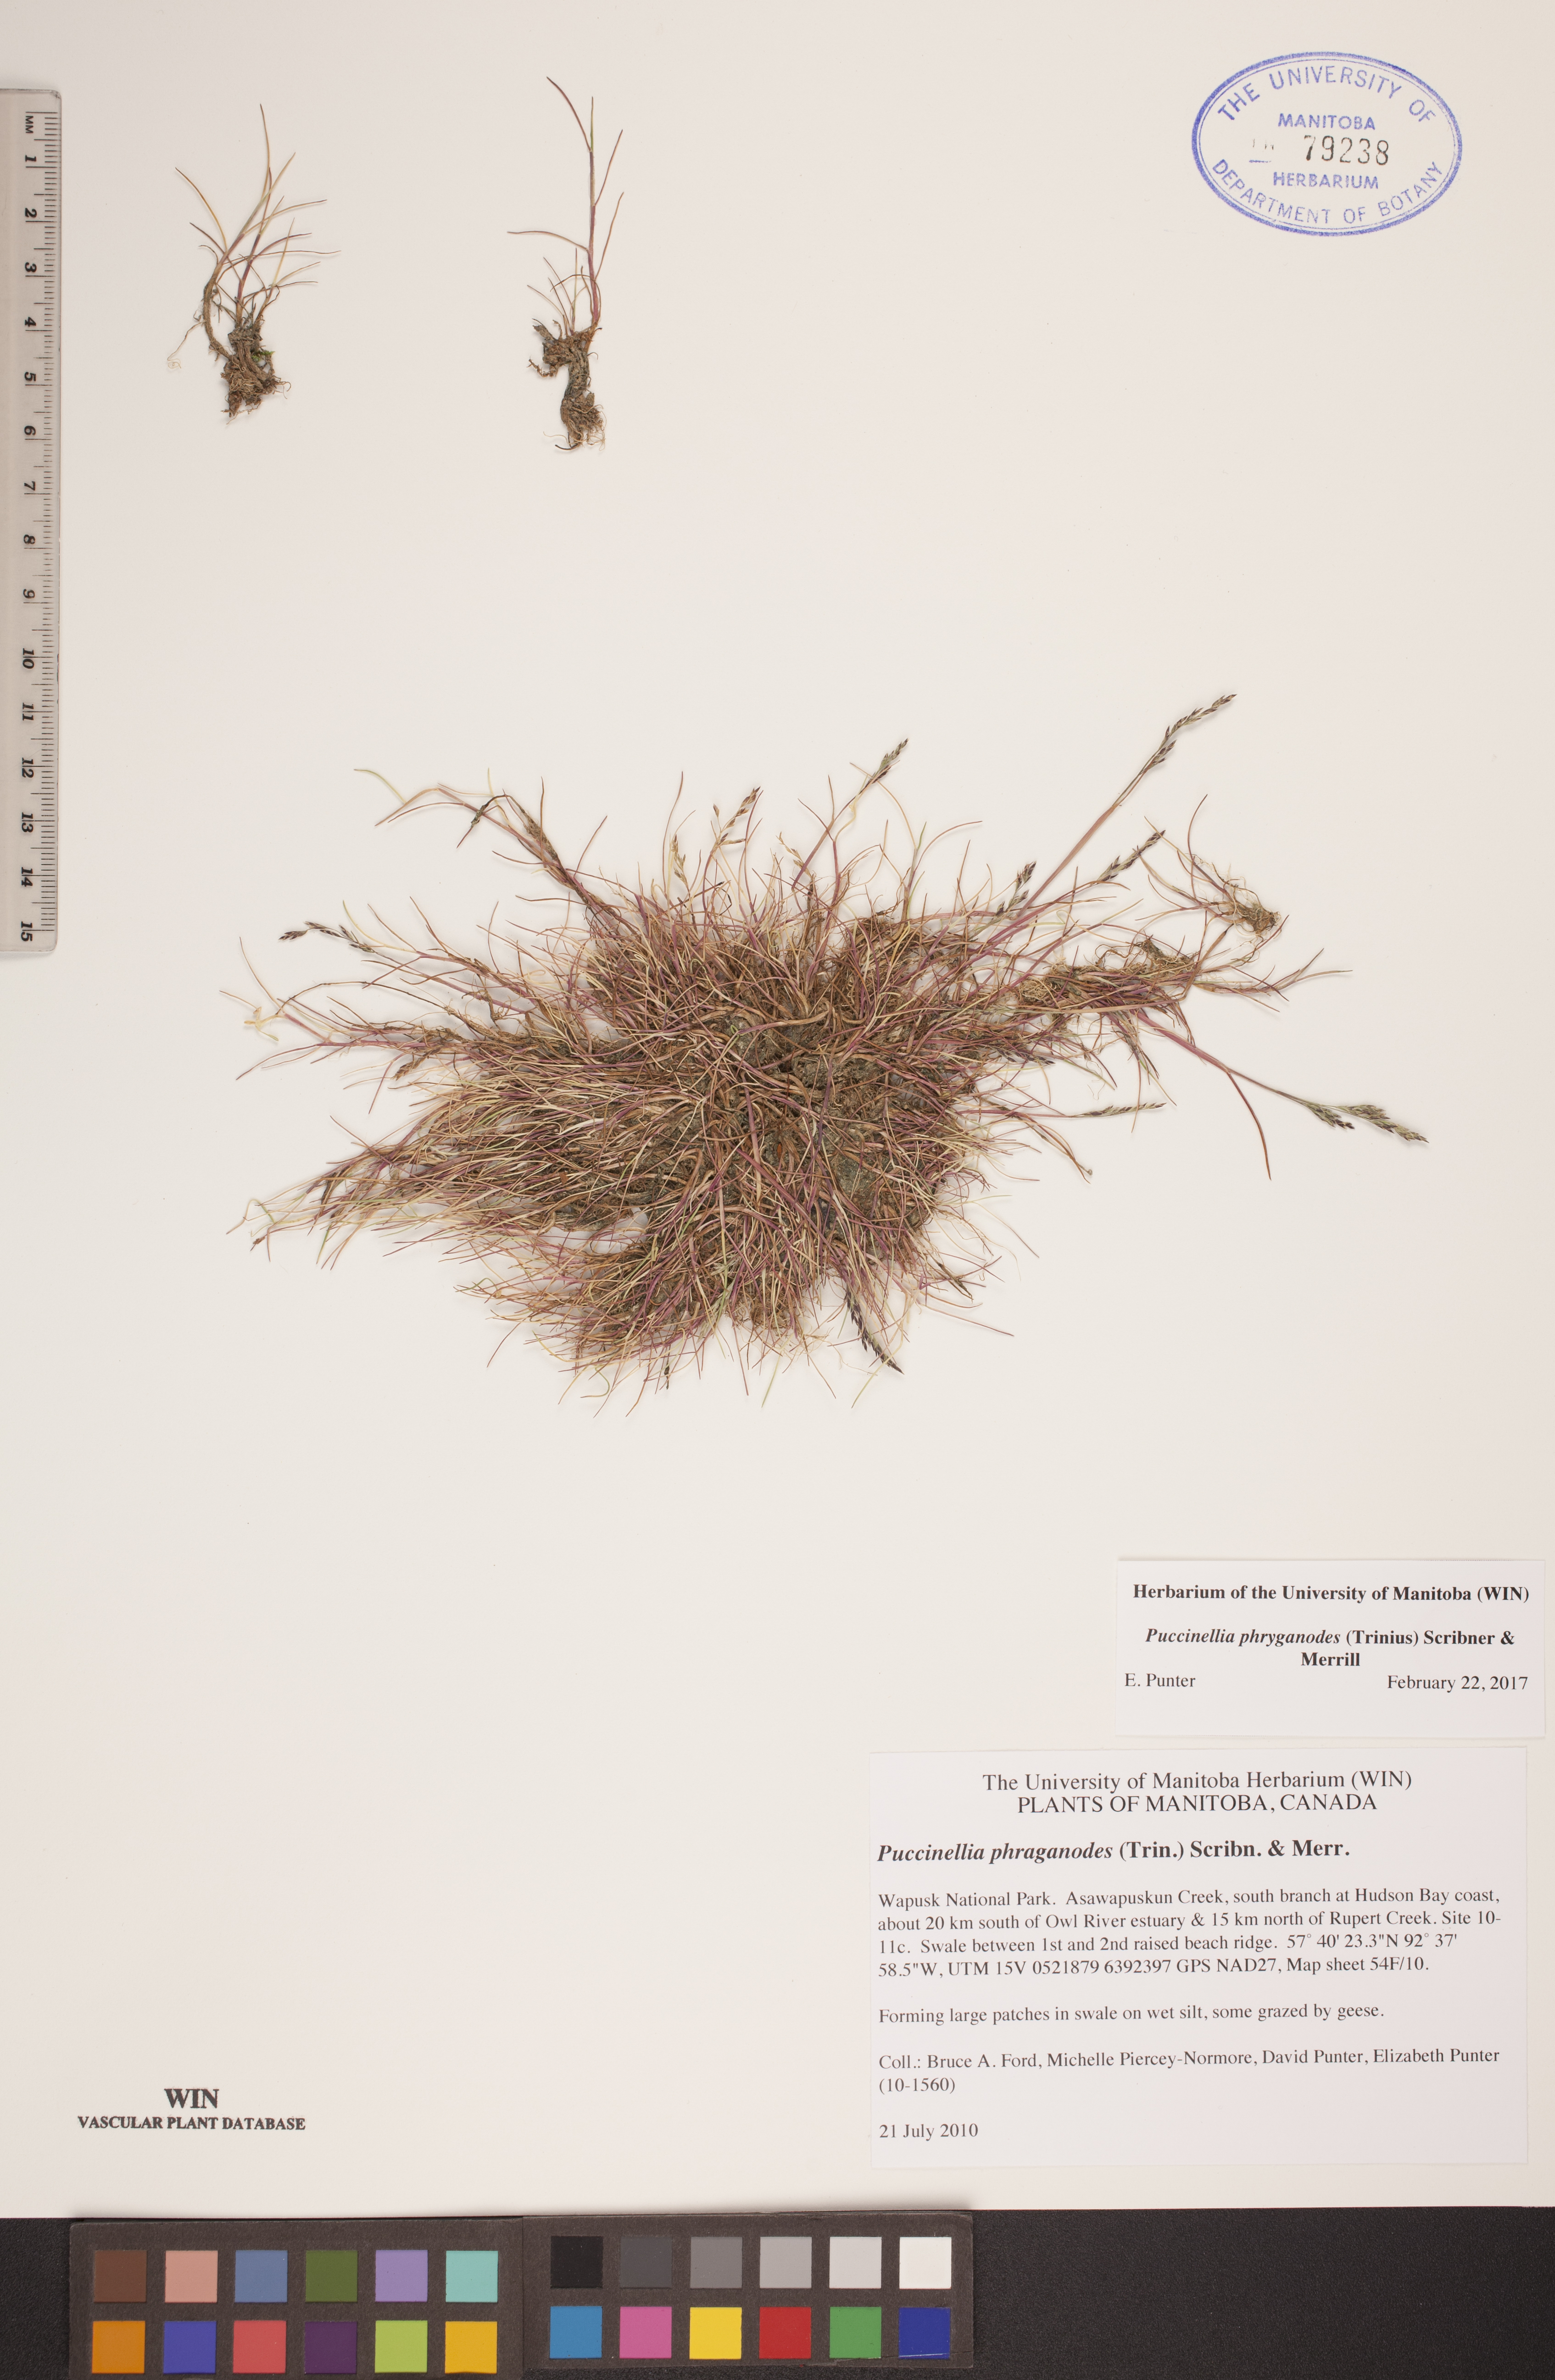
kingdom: Plantae
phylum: Tracheophyta
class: Liliopsida
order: Poales
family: Poaceae
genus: Puccinellia
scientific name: Puccinellia phryganodes
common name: Creeping alkaligrass
